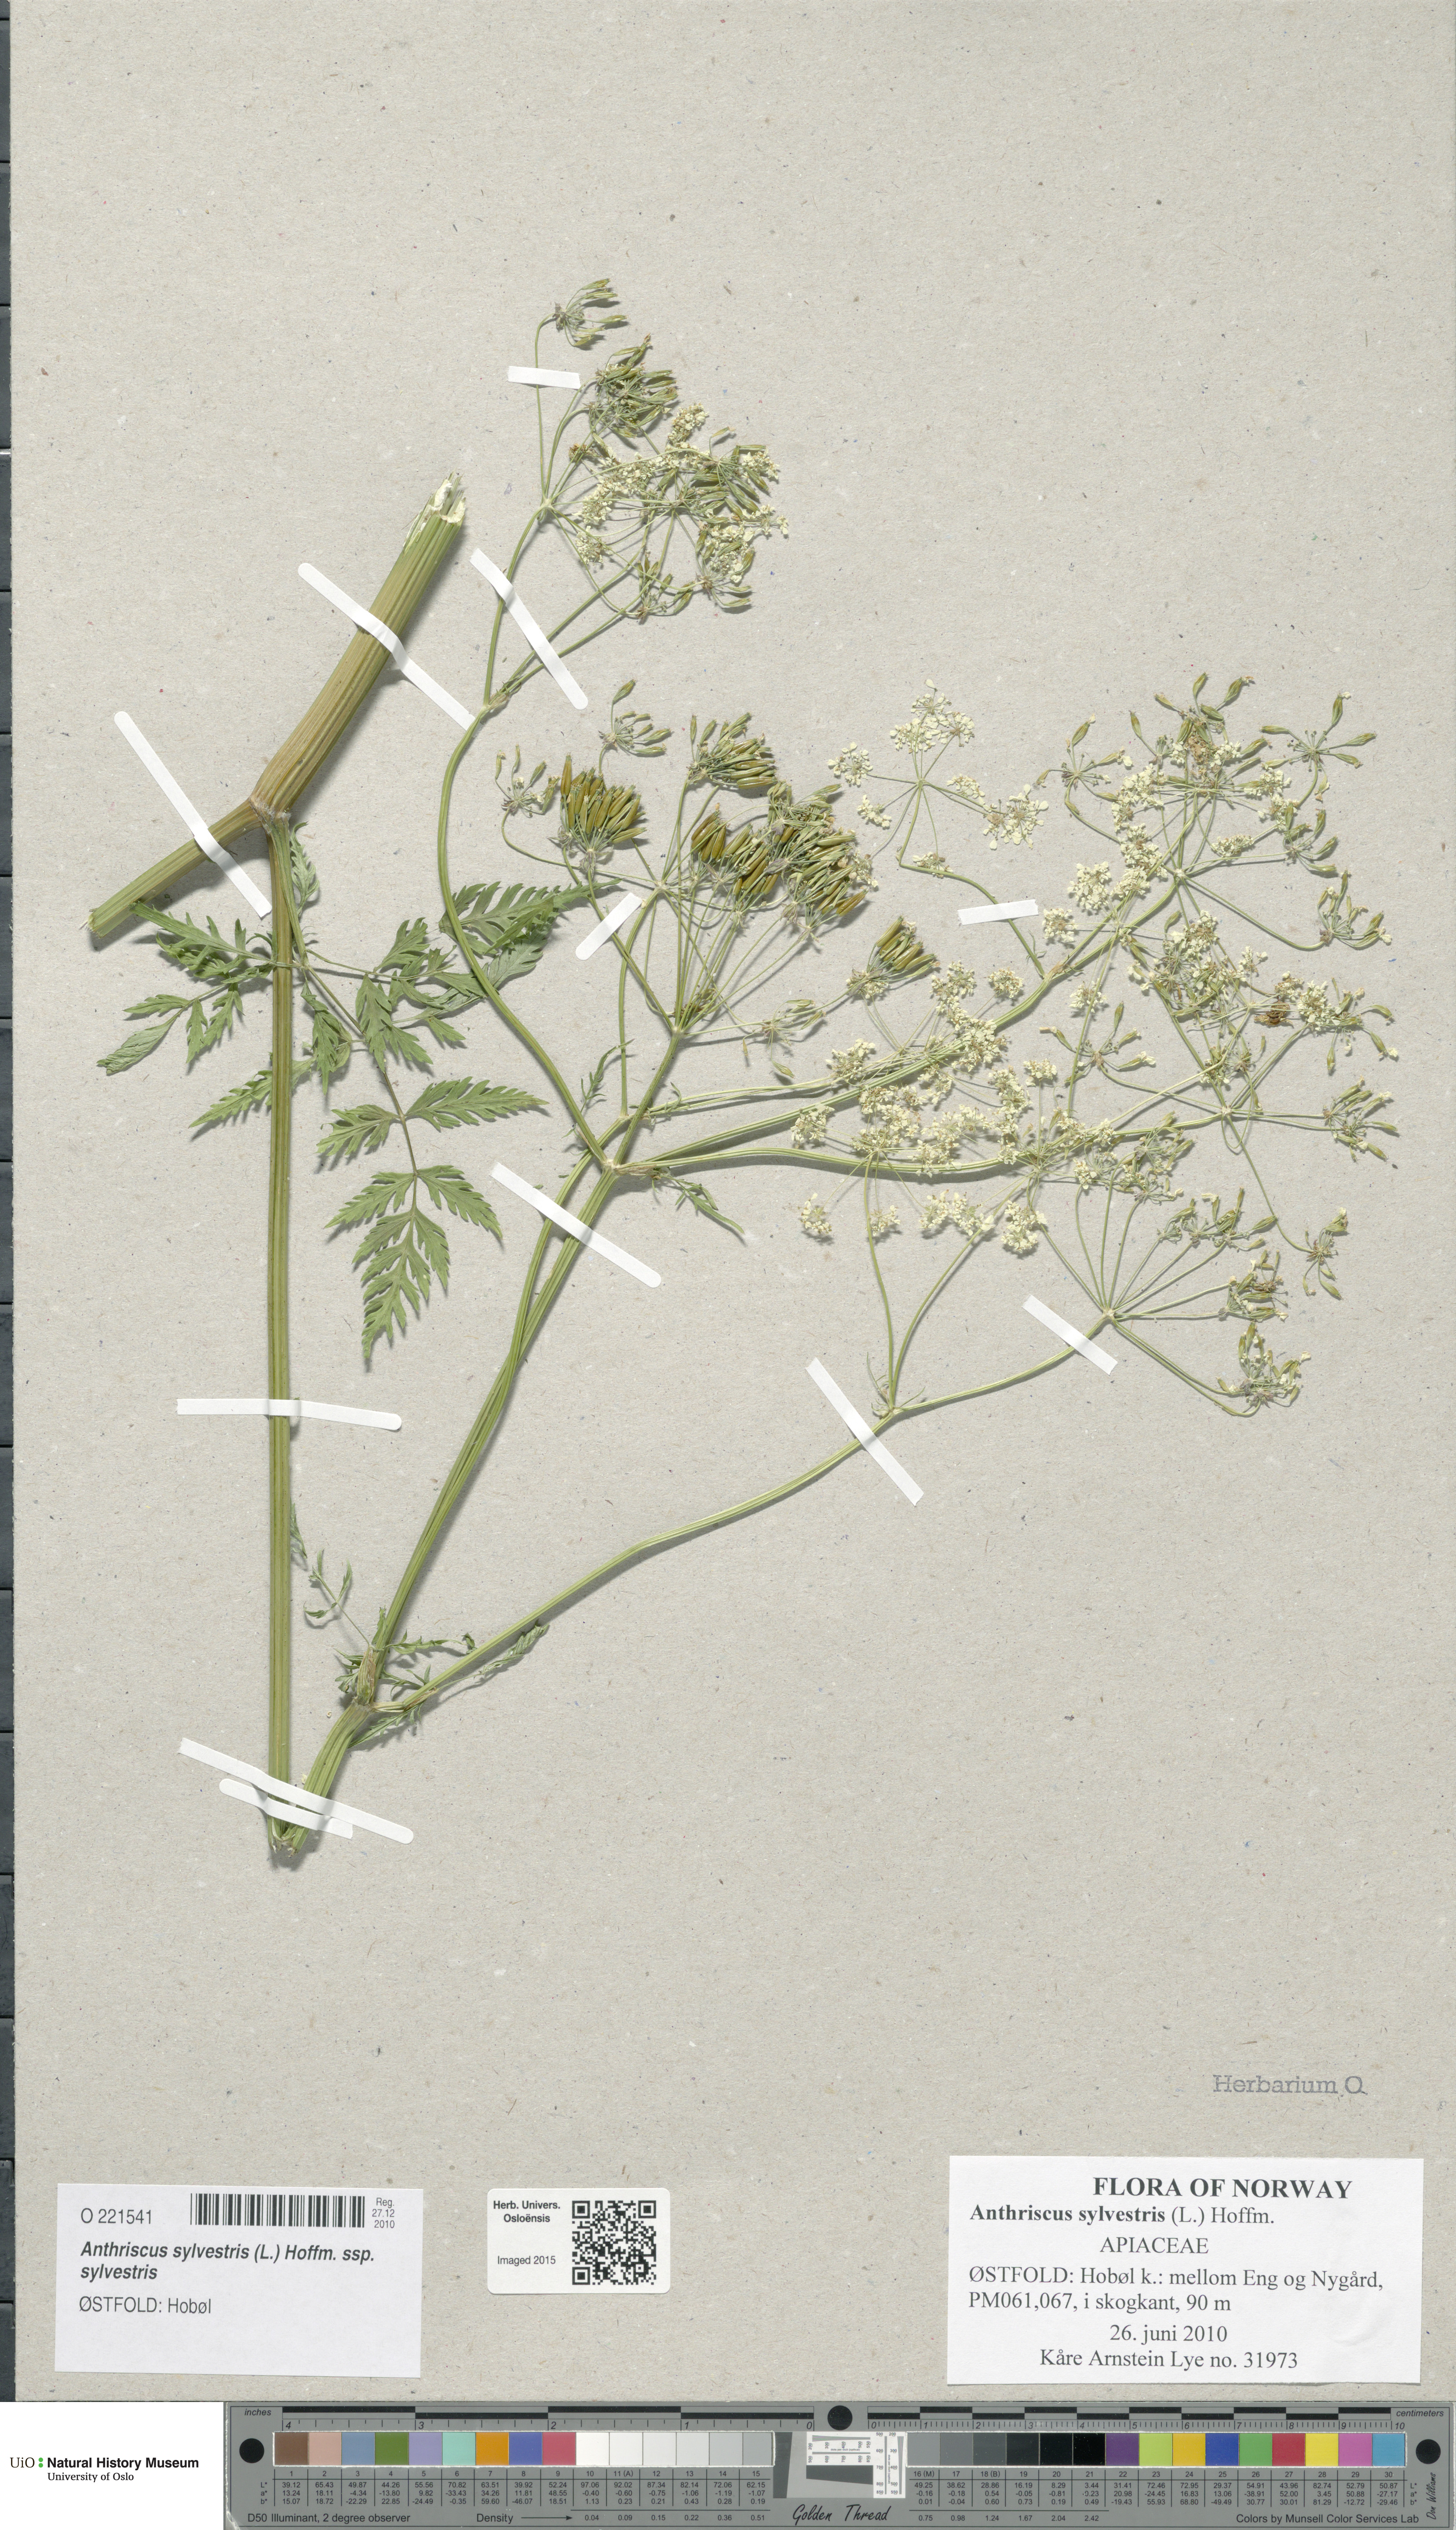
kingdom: Plantae
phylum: Tracheophyta
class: Magnoliopsida
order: Apiales
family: Apiaceae
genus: Anthriscus
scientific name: Anthriscus sylvestris
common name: Cow parsley
